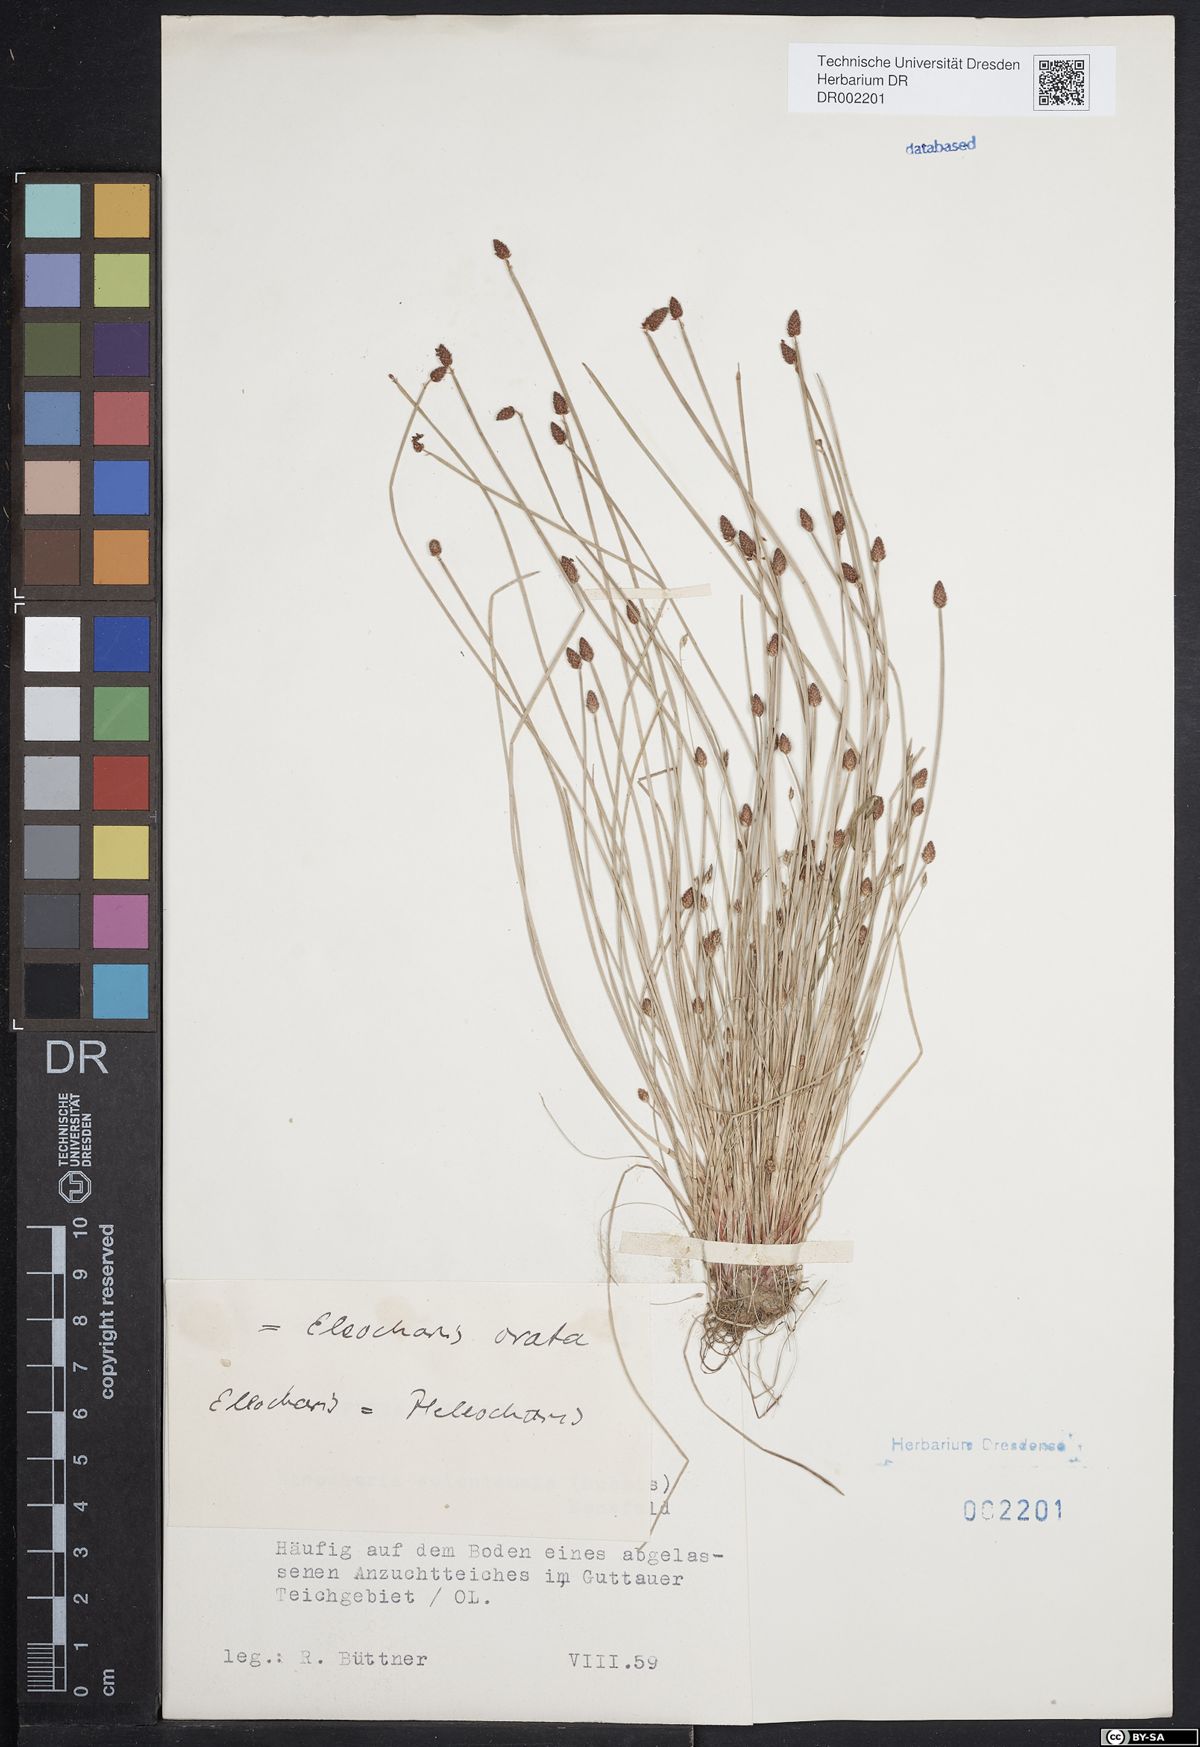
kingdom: Plantae
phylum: Tracheophyta
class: Liliopsida
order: Poales
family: Cyperaceae
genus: Eleocharis
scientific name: Eleocharis ovata
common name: Oval spike-rush
